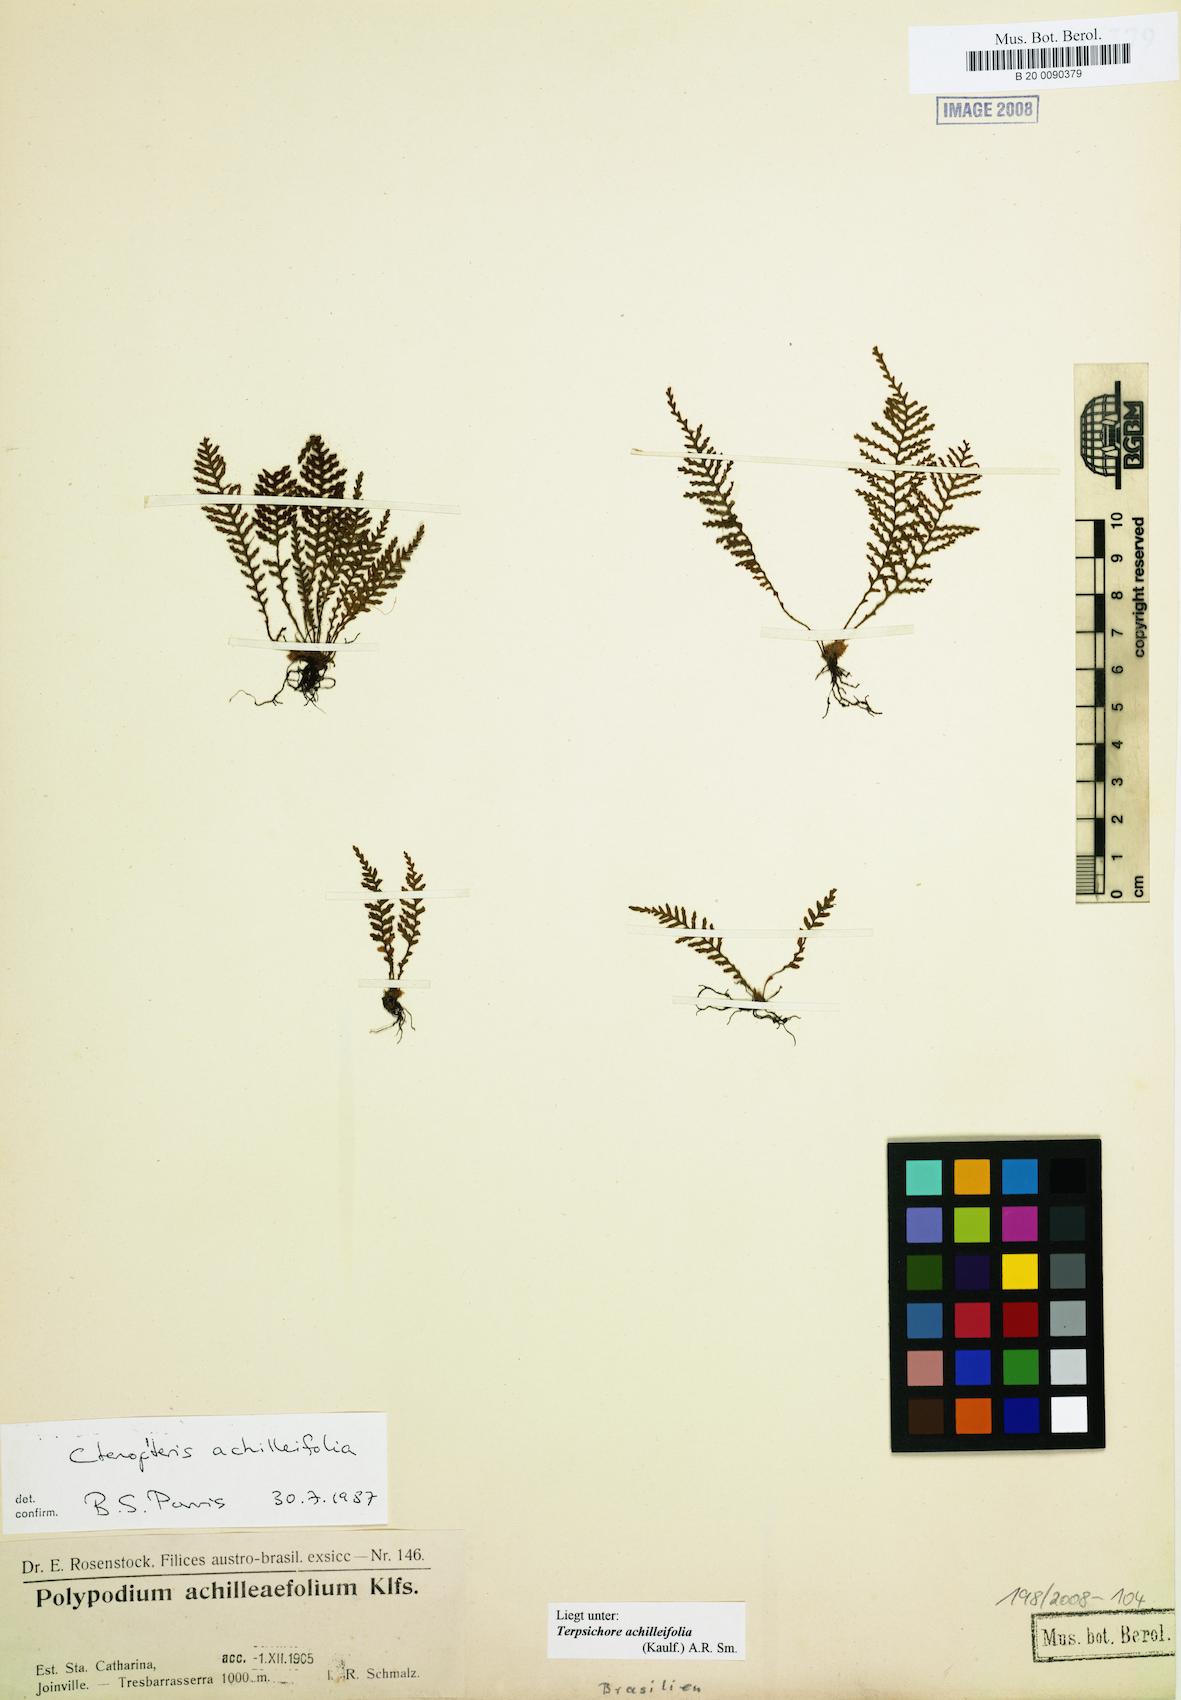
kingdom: Plantae
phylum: Tracheophyta
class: Polypodiopsida
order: Polypodiales
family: Polypodiaceae
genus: Moranopteris
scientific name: Moranopteris achilleifolia
